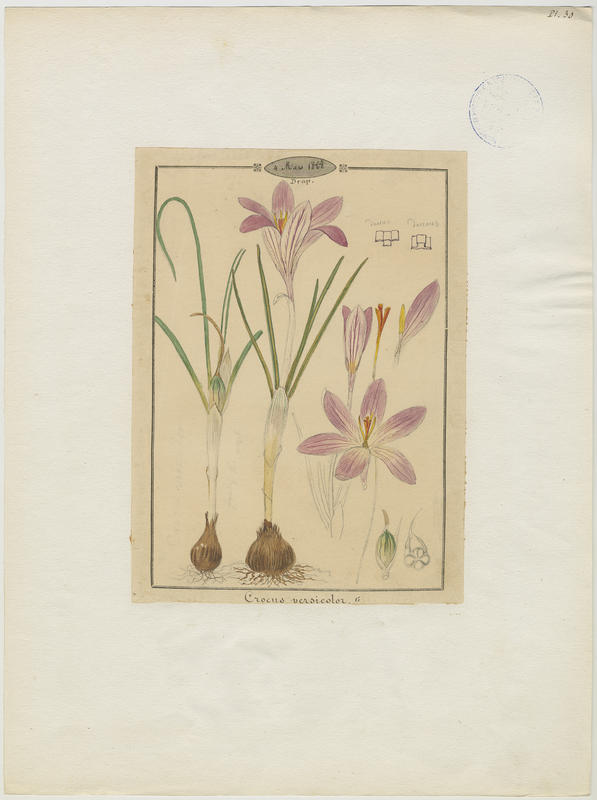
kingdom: Plantae
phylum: Tracheophyta
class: Liliopsida
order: Asparagales
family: Iridaceae
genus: Crocus
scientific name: Crocus versicolor
